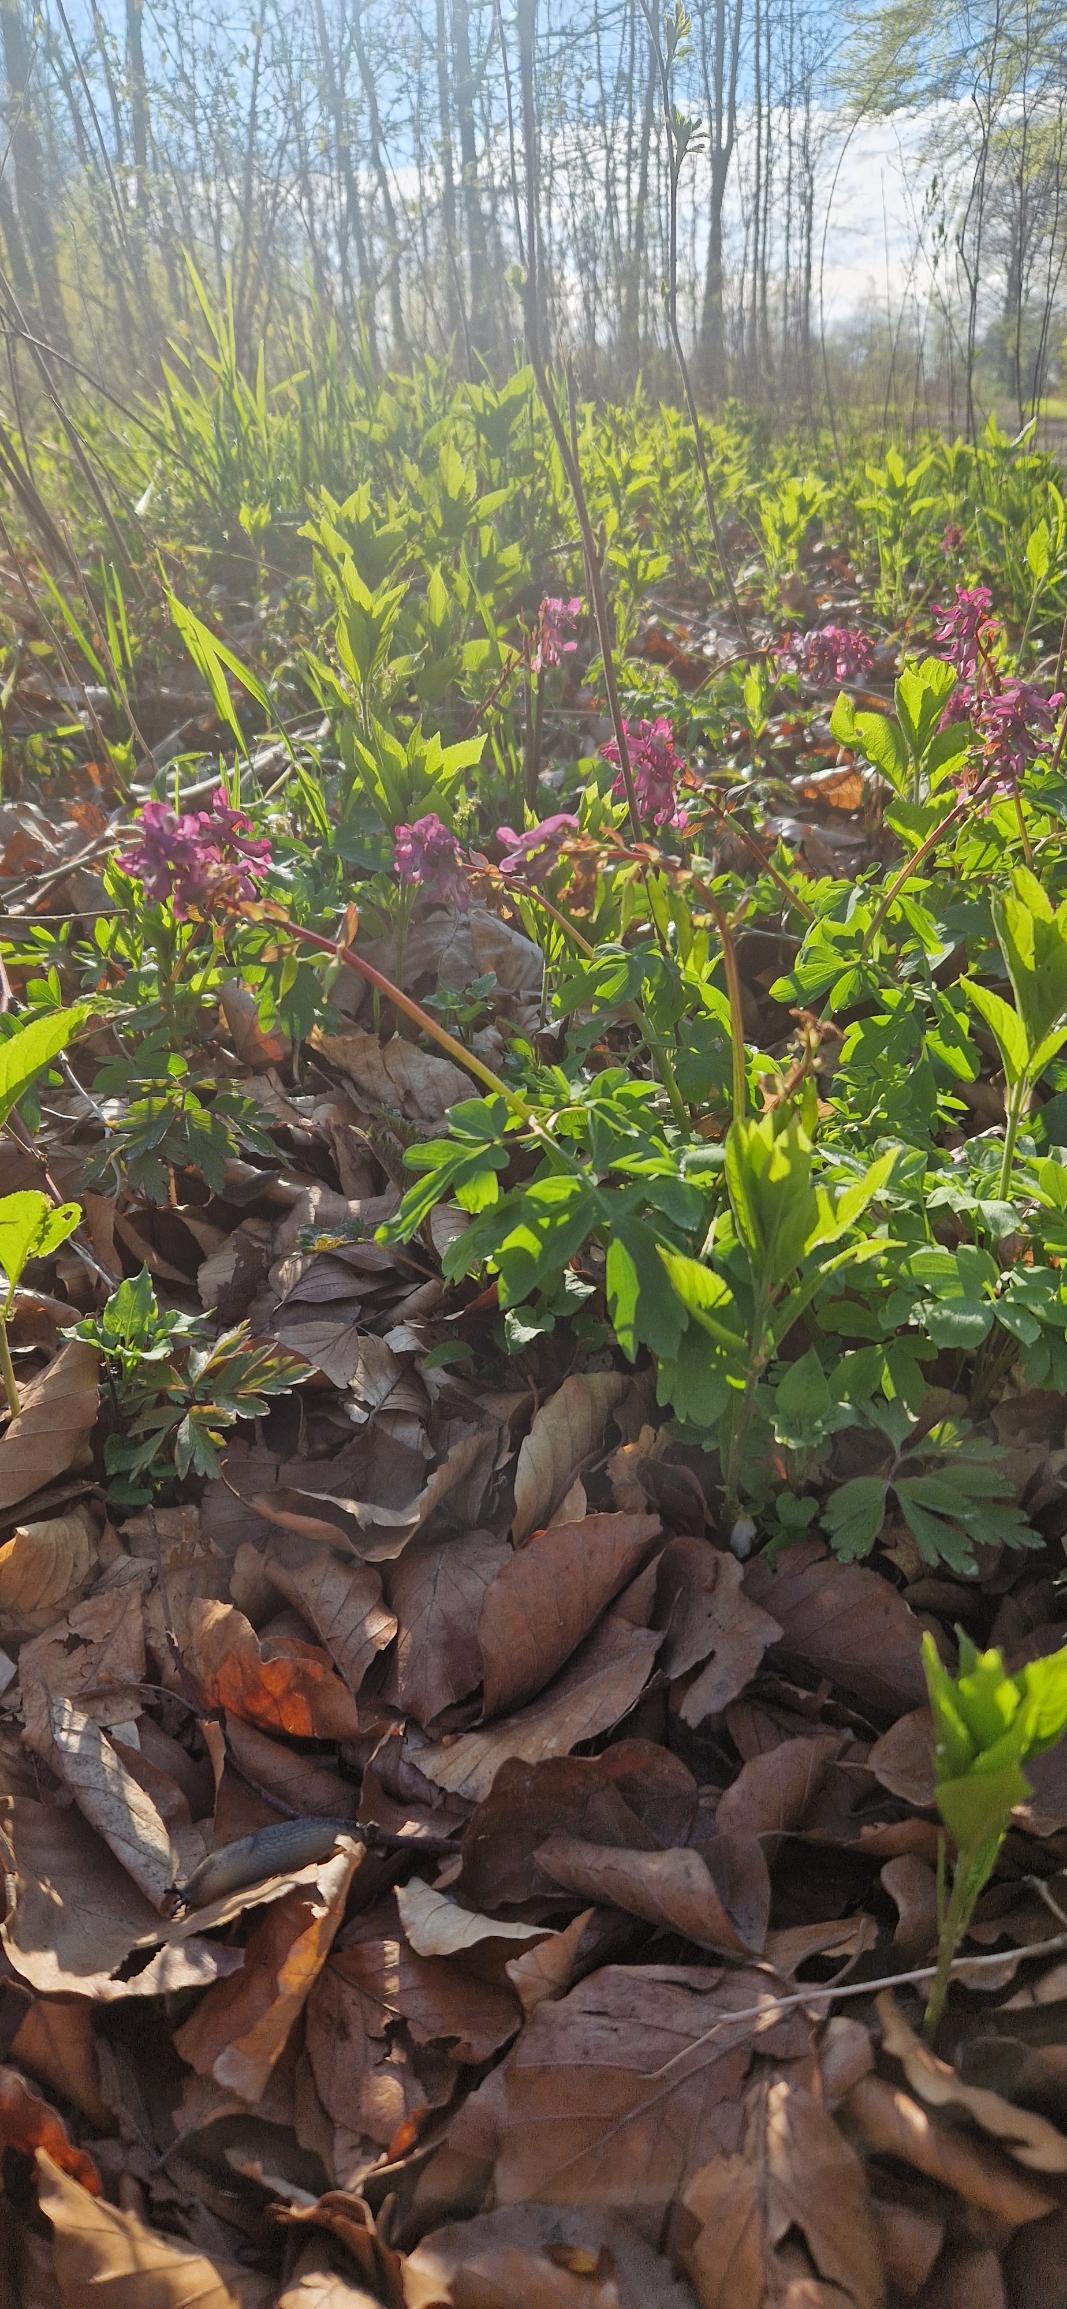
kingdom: Plantae
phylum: Tracheophyta
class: Magnoliopsida
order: Ranunculales
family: Papaveraceae
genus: Corydalis
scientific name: Corydalis cava
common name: Hulrodet lærkespore
